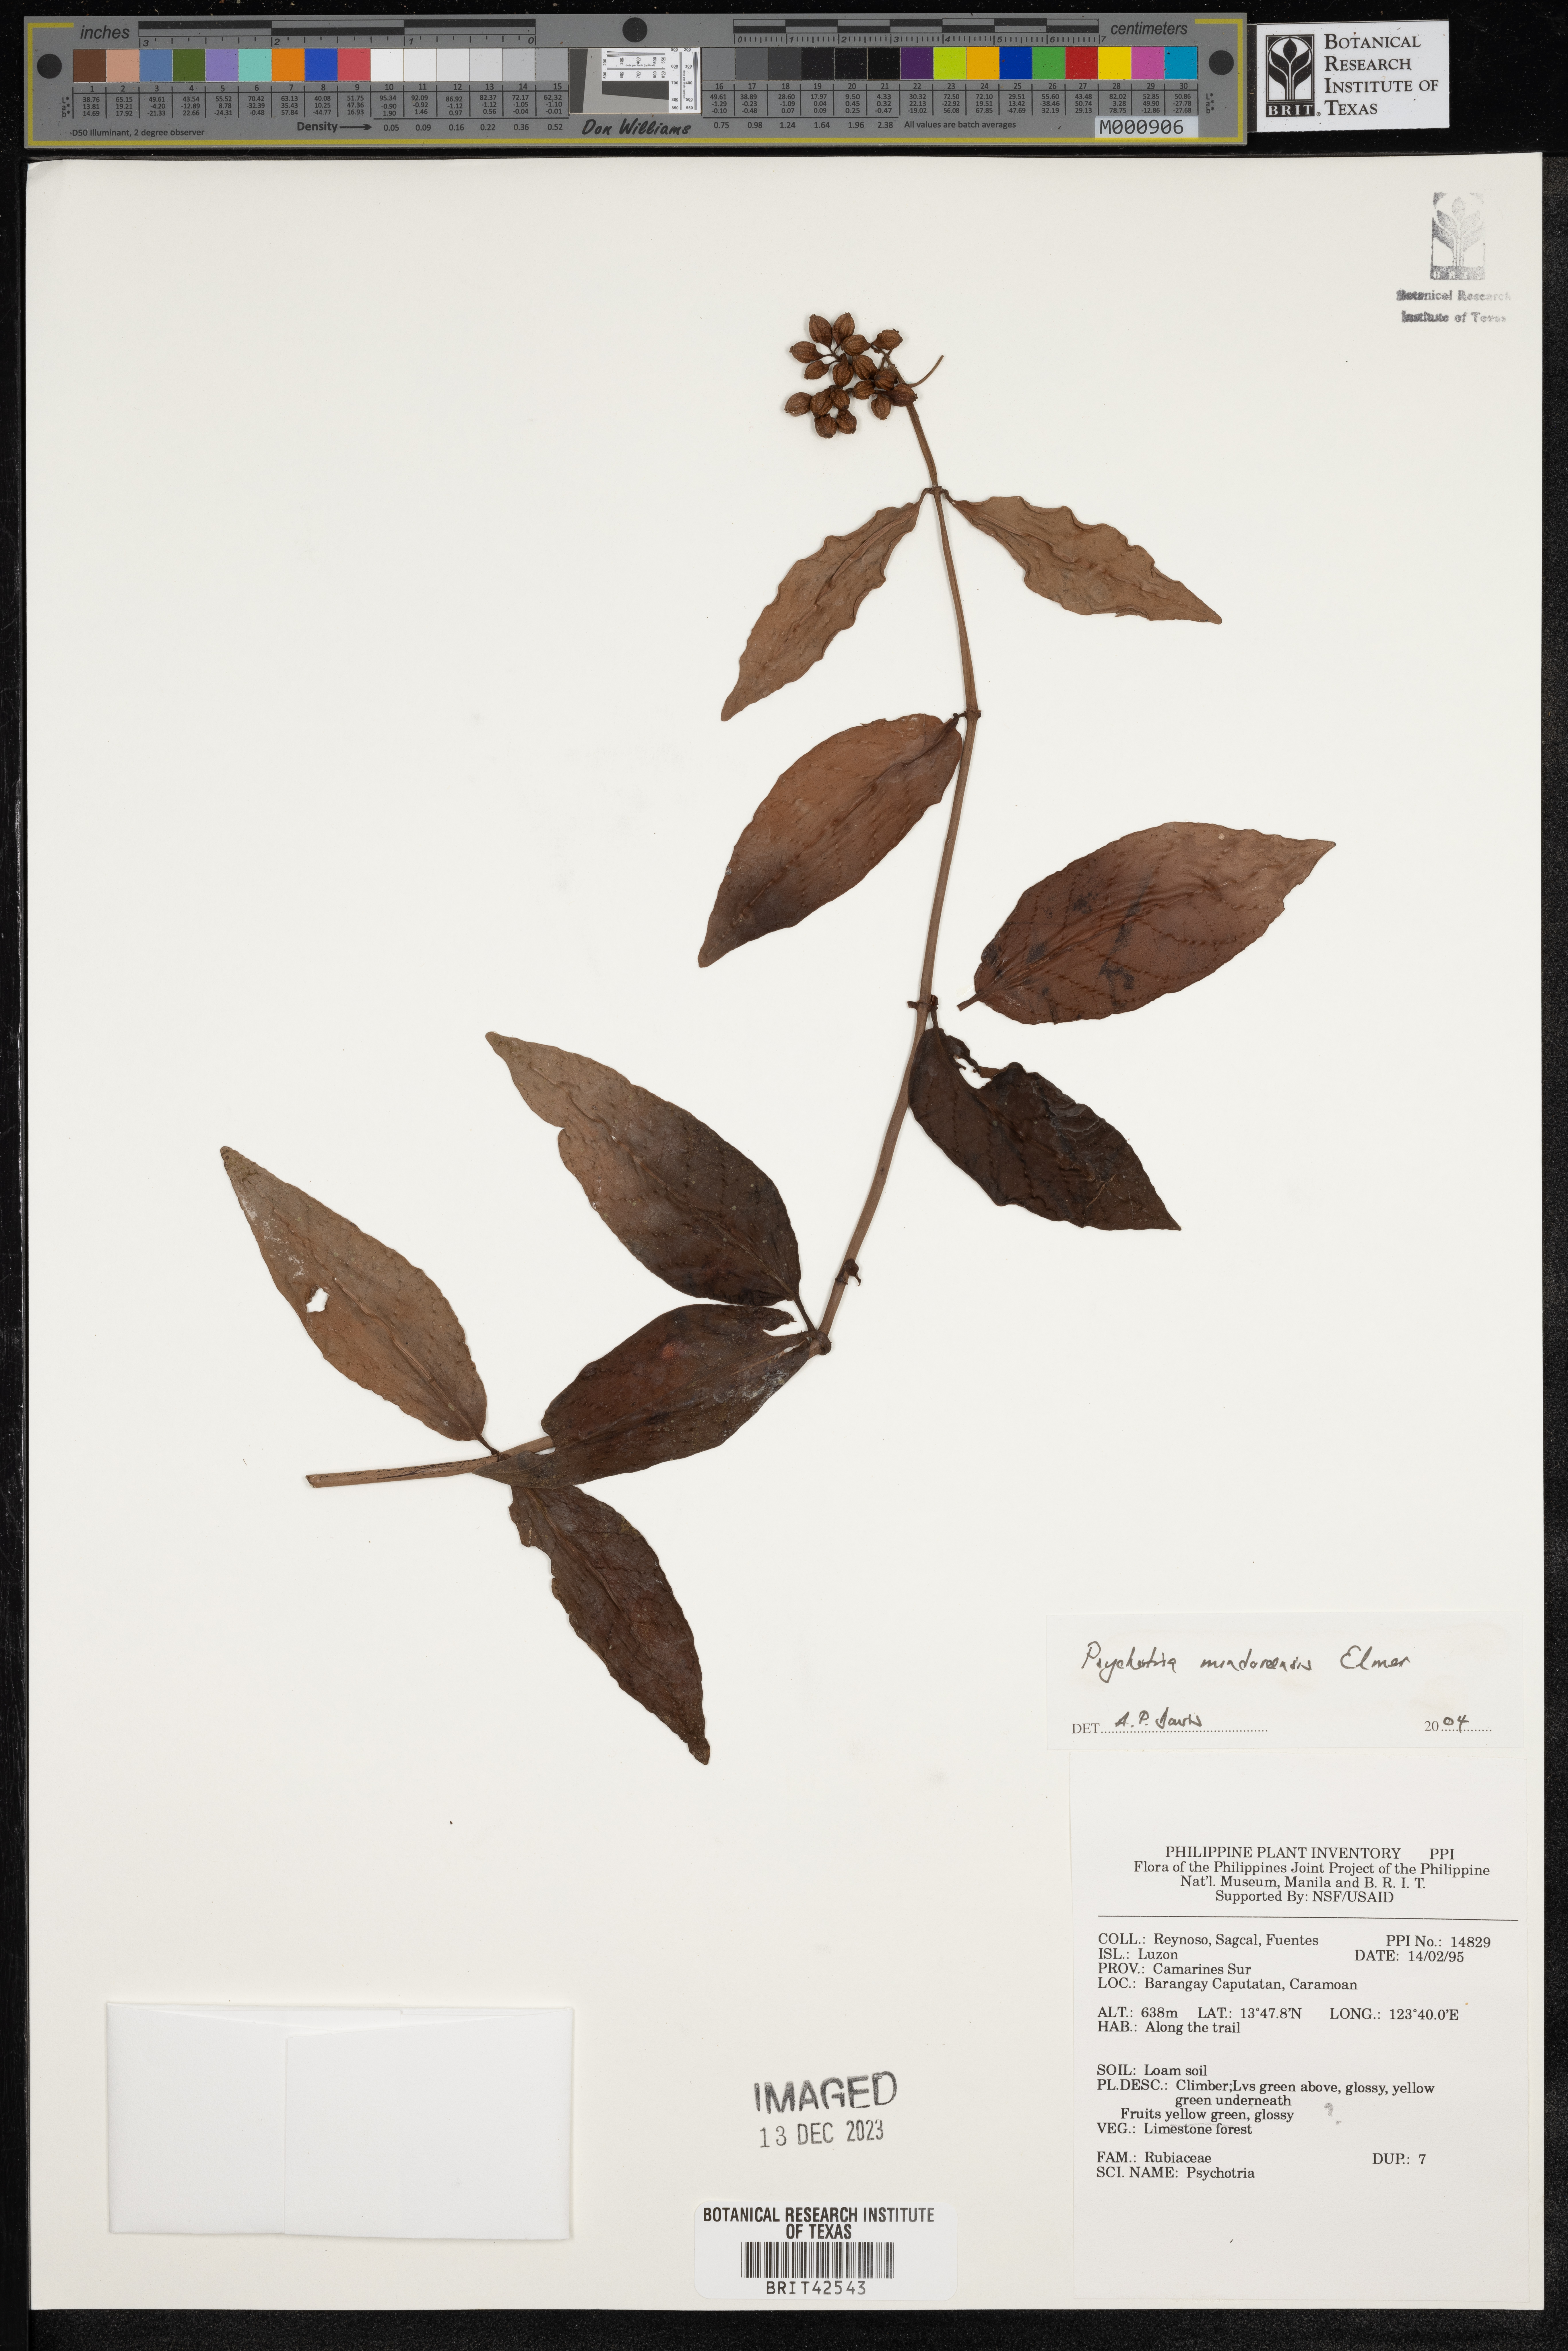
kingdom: Plantae
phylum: Tracheophyta
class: Magnoliopsida
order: Gentianales
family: Rubiaceae
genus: Psychotria
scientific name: Psychotria mindoroensis
